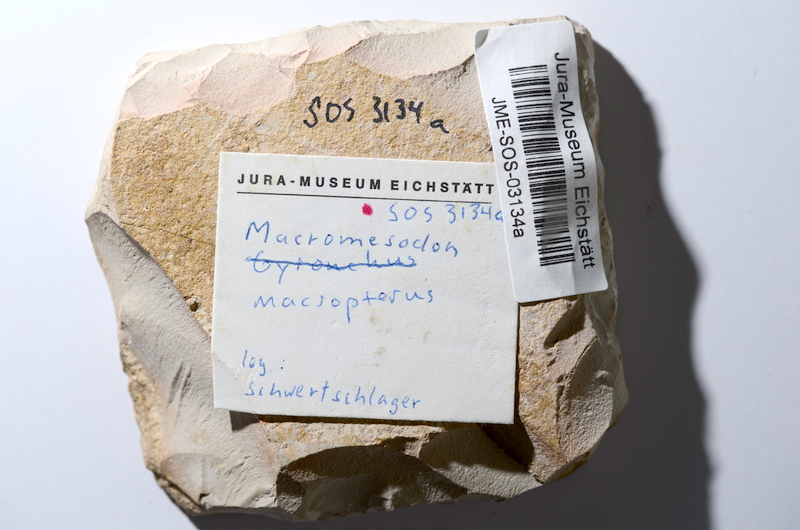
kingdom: Animalia
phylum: Chordata
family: Pycnodontidae
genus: Turbomesodon
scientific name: Turbomesodon relegans
